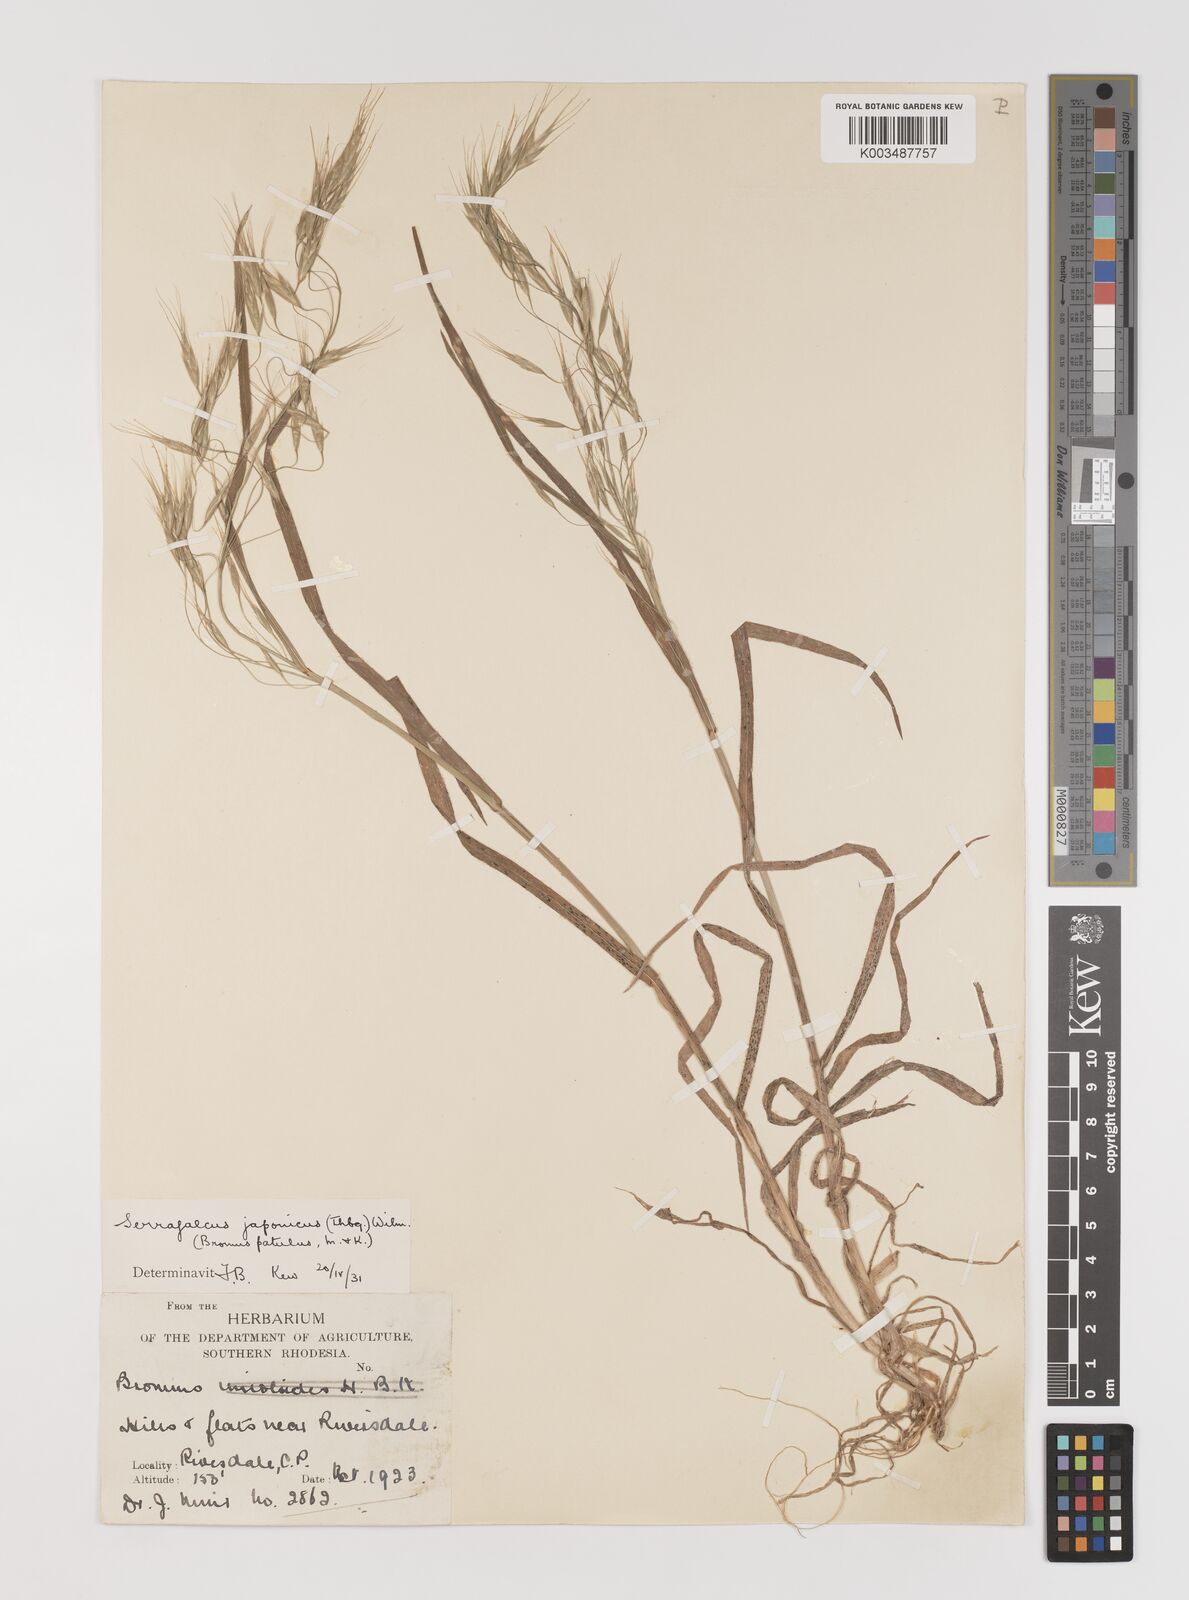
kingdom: Plantae
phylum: Tracheophyta
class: Liliopsida
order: Poales
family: Poaceae
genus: Bromus
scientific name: Bromus pectinatus
